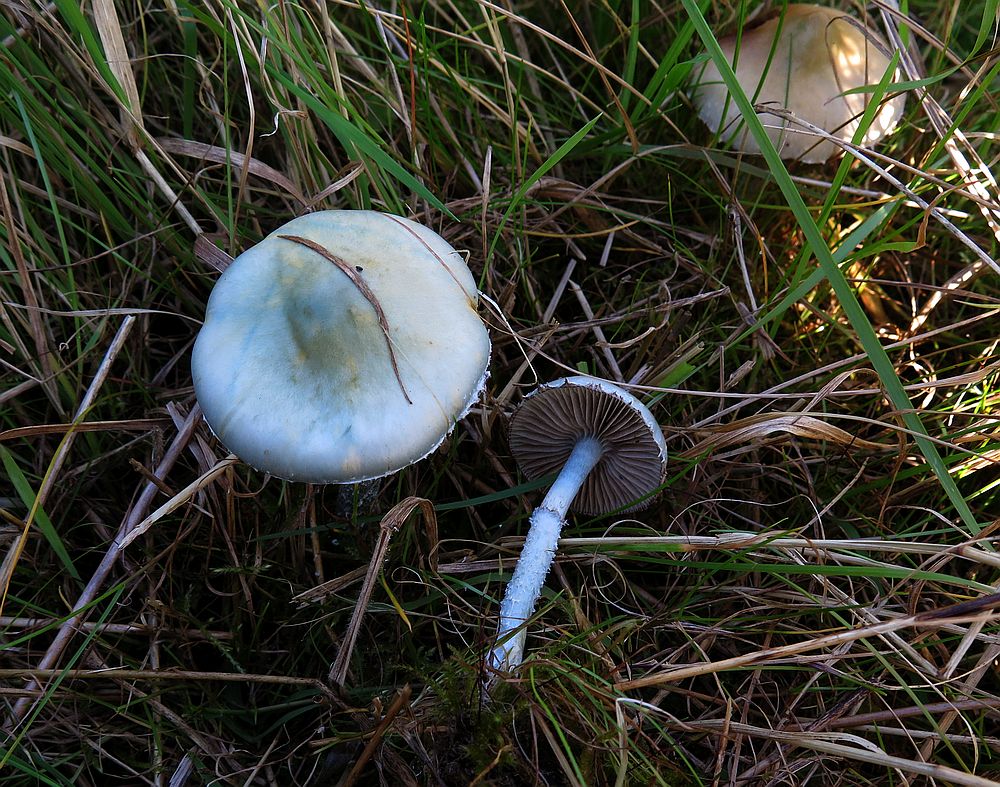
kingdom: Fungi
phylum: Basidiomycota
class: Agaricomycetes
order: Agaricales
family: Strophariaceae
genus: Stropharia
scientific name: Stropharia pseudocyanea
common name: blegblå bredblad
